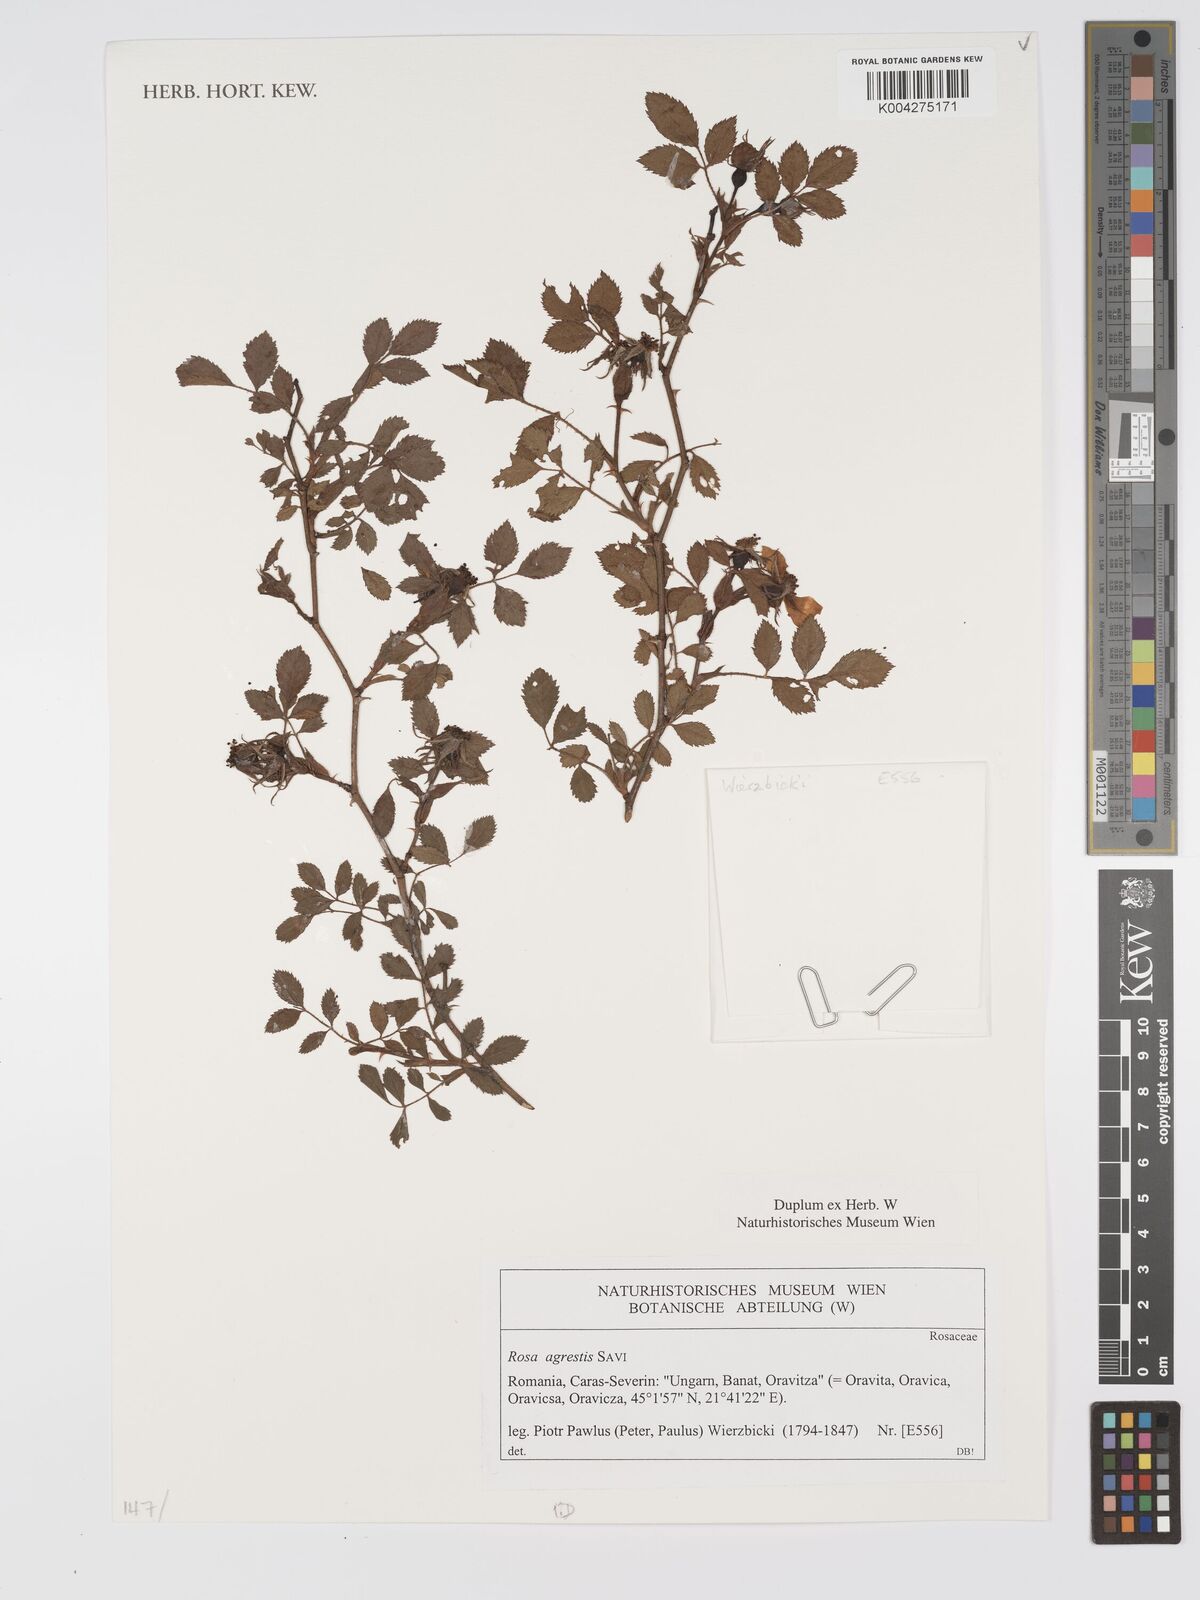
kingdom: Plantae
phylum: Tracheophyta
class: Magnoliopsida
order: Rosales
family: Rosaceae
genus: Rosa
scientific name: Rosa
